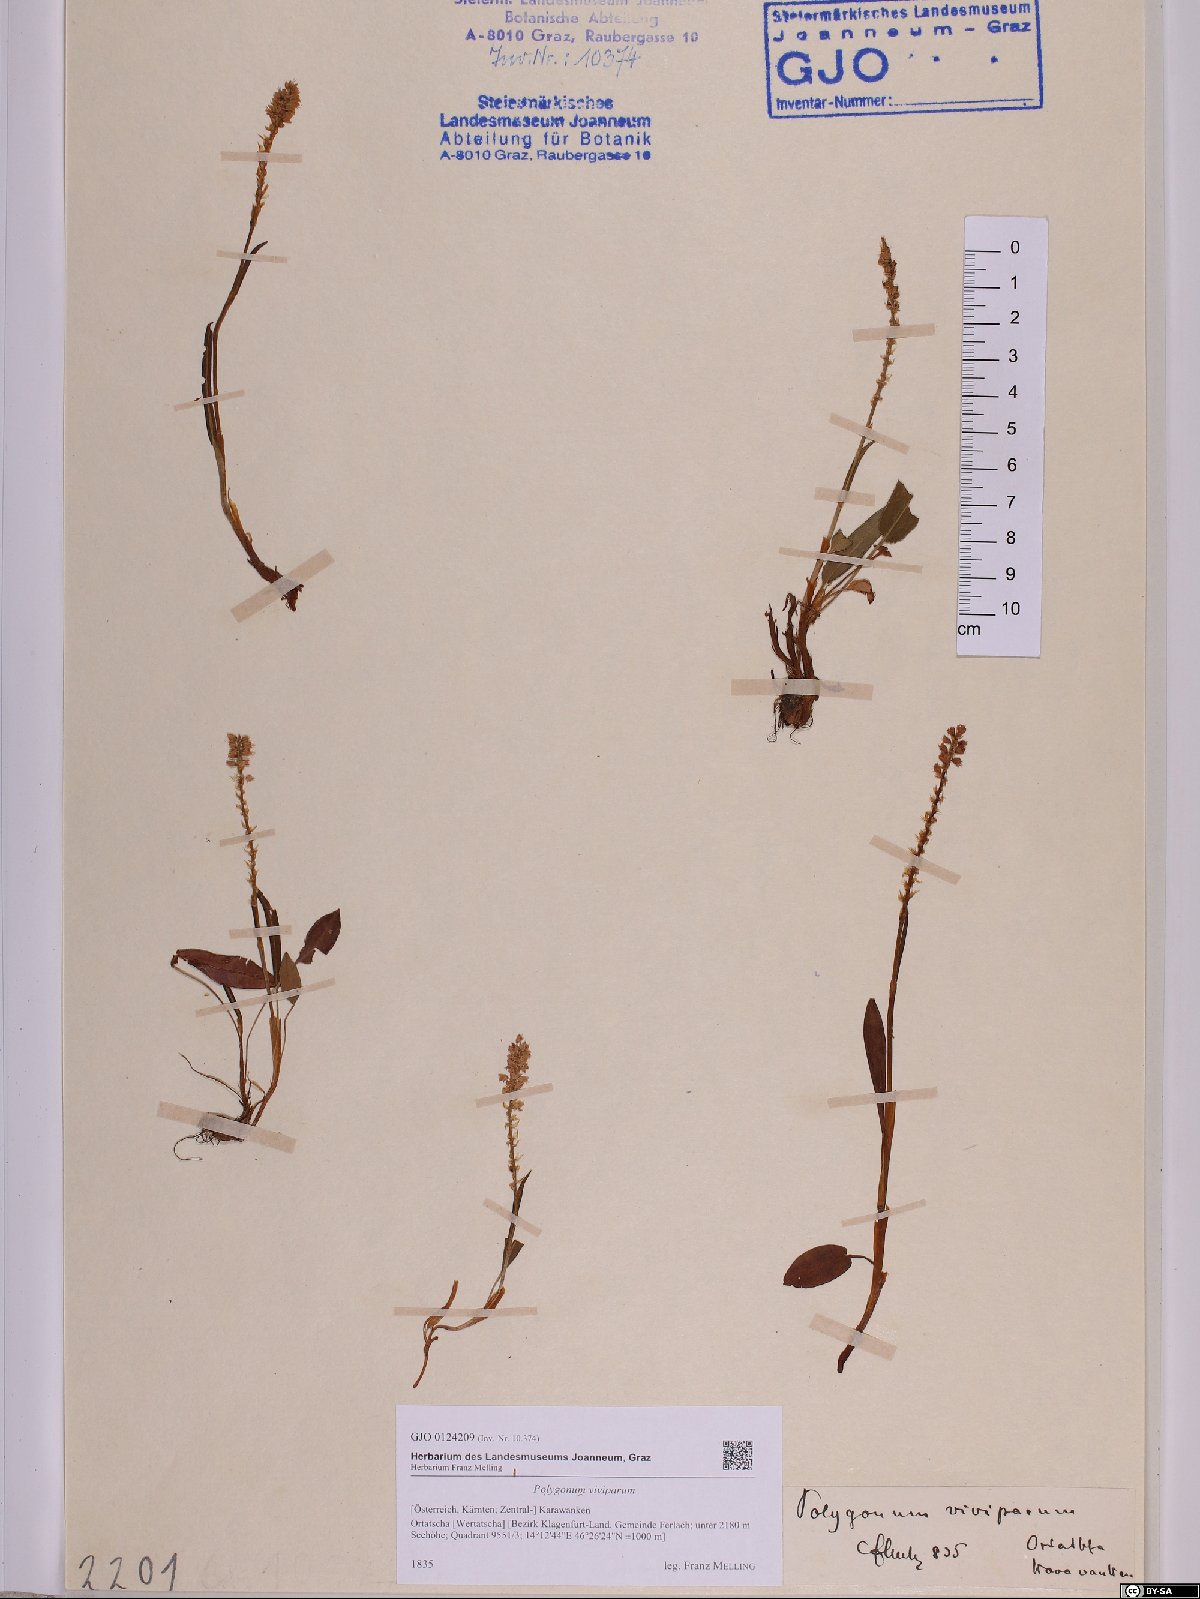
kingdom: Plantae
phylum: Tracheophyta
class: Magnoliopsida
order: Caryophyllales
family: Polygonaceae
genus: Bistorta
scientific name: Bistorta vivipara
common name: Alpine bistort
